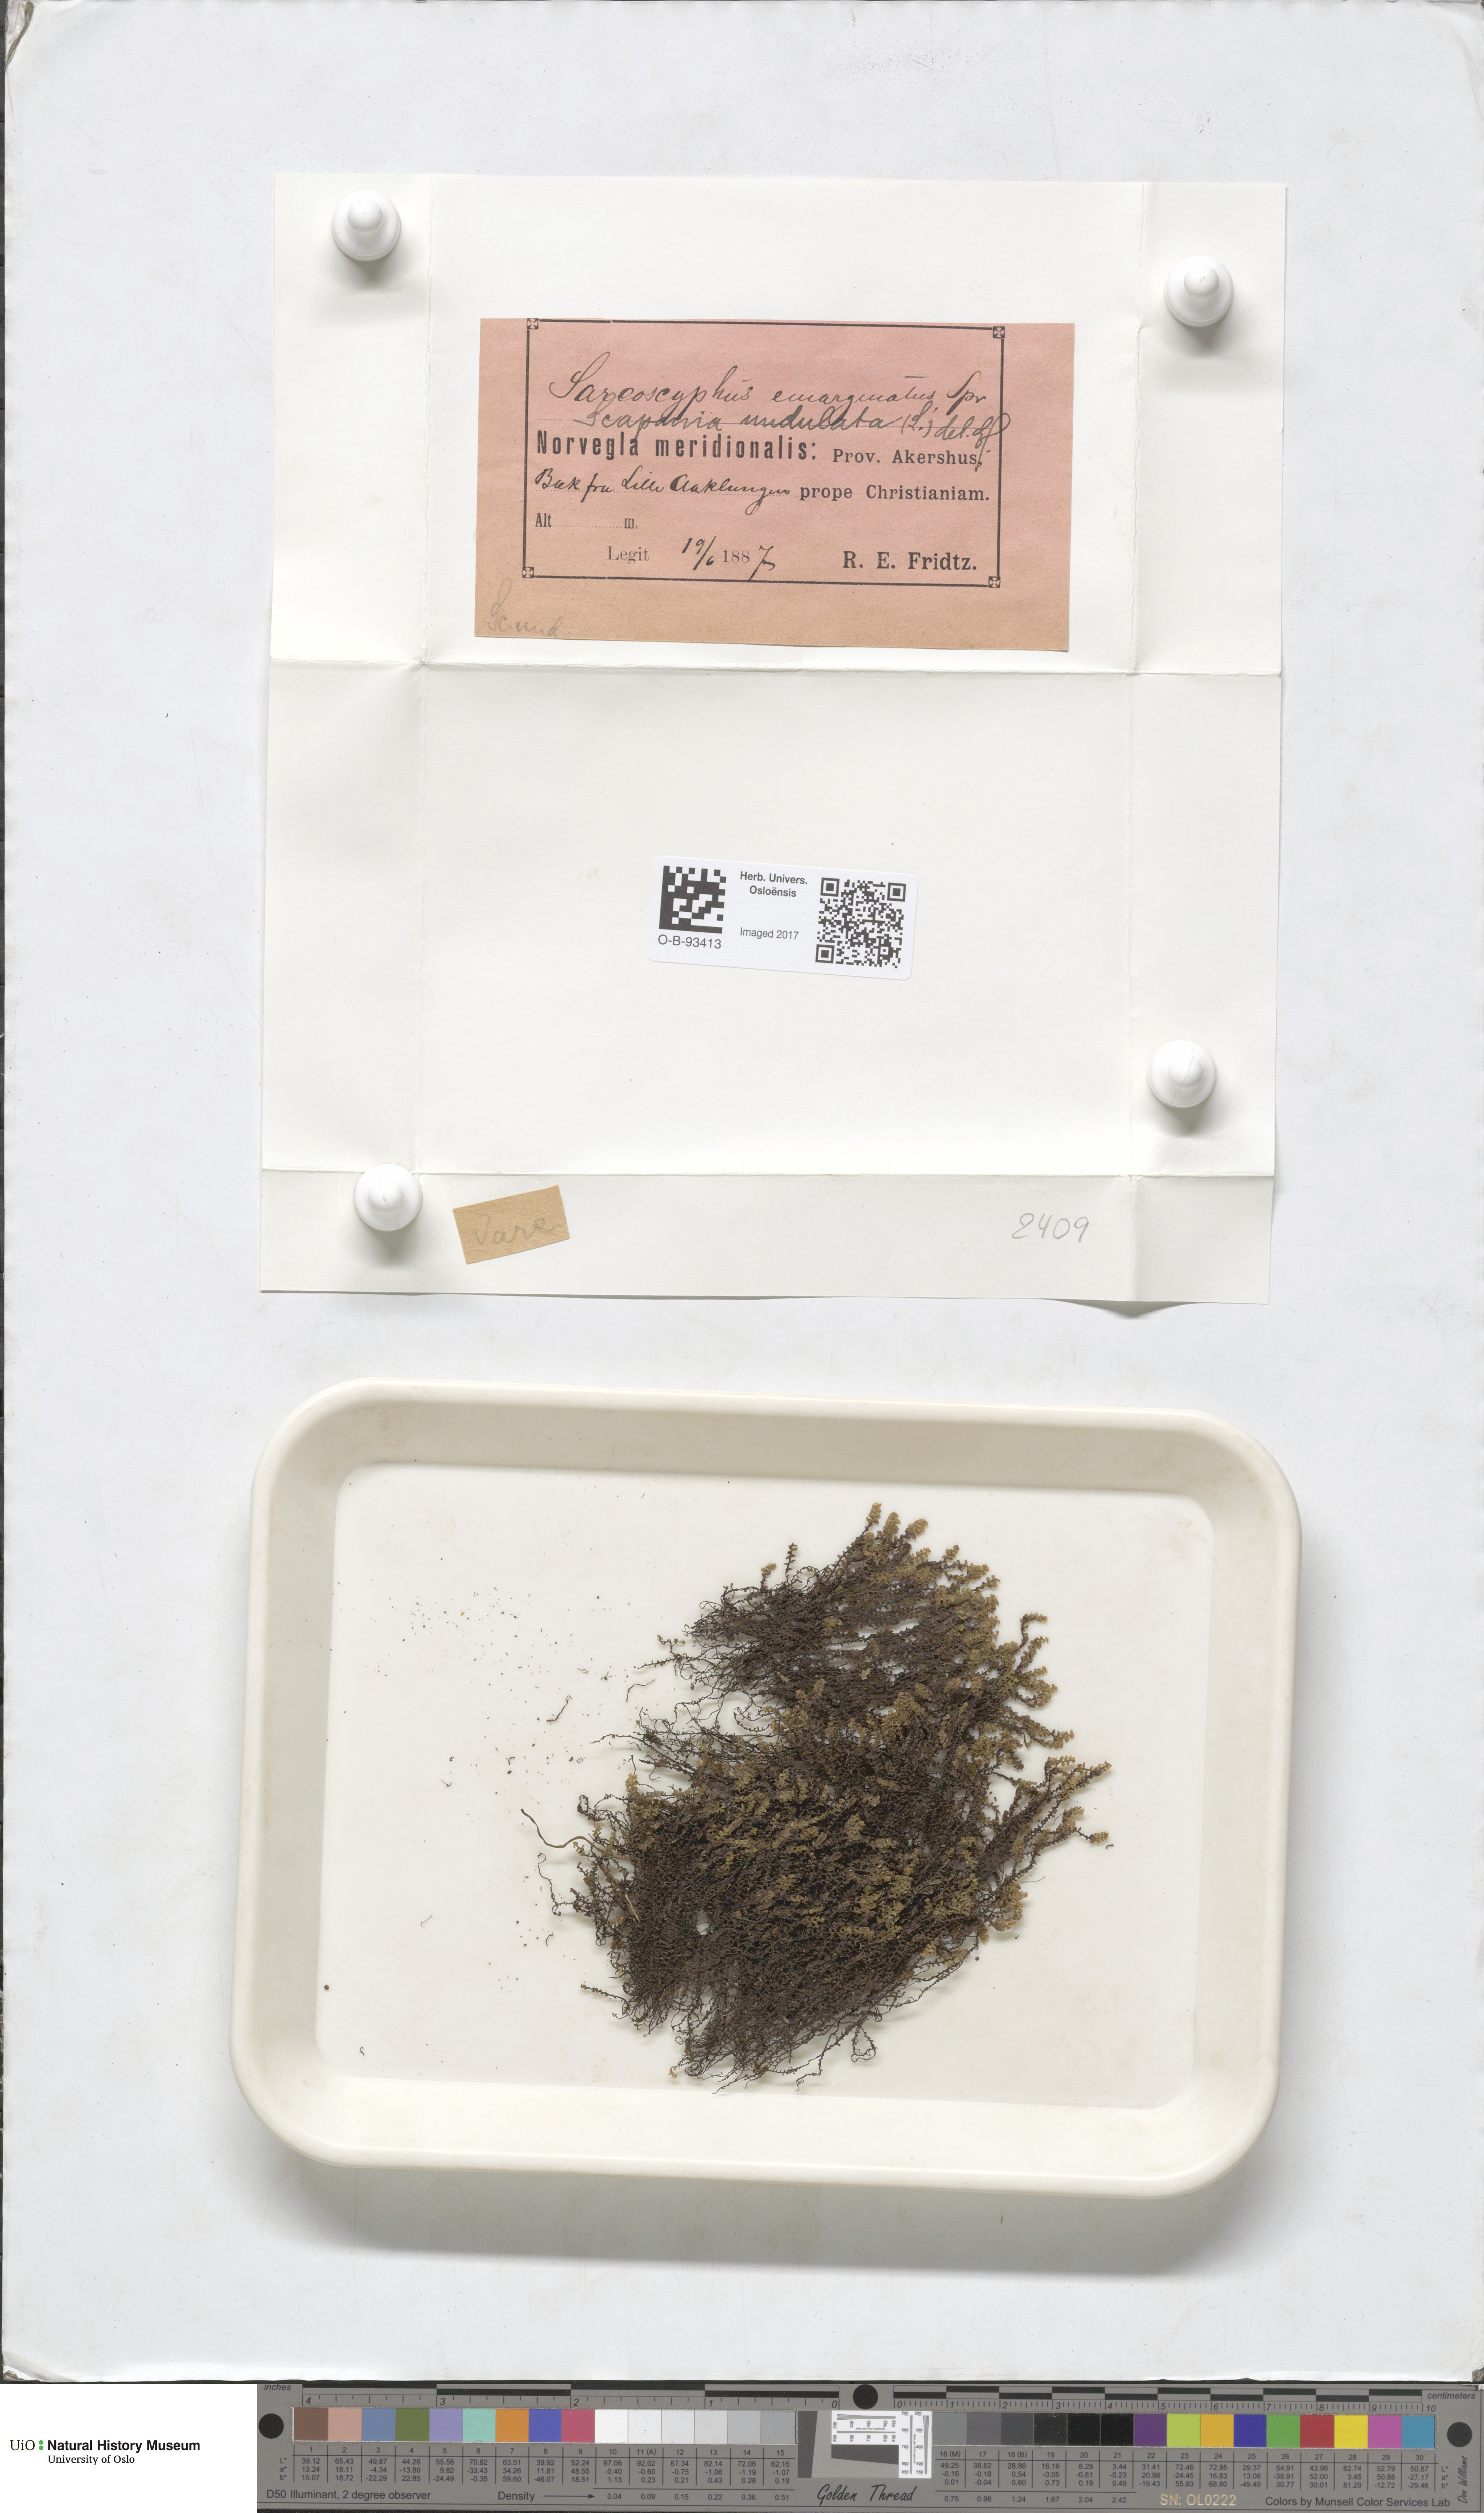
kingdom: Plantae
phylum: Marchantiophyta
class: Jungermanniopsida
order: Jungermanniales
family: Gymnomitriaceae
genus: Gymnomitrion
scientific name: Gymnomitrion brevissimum
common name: Snow rustwort
